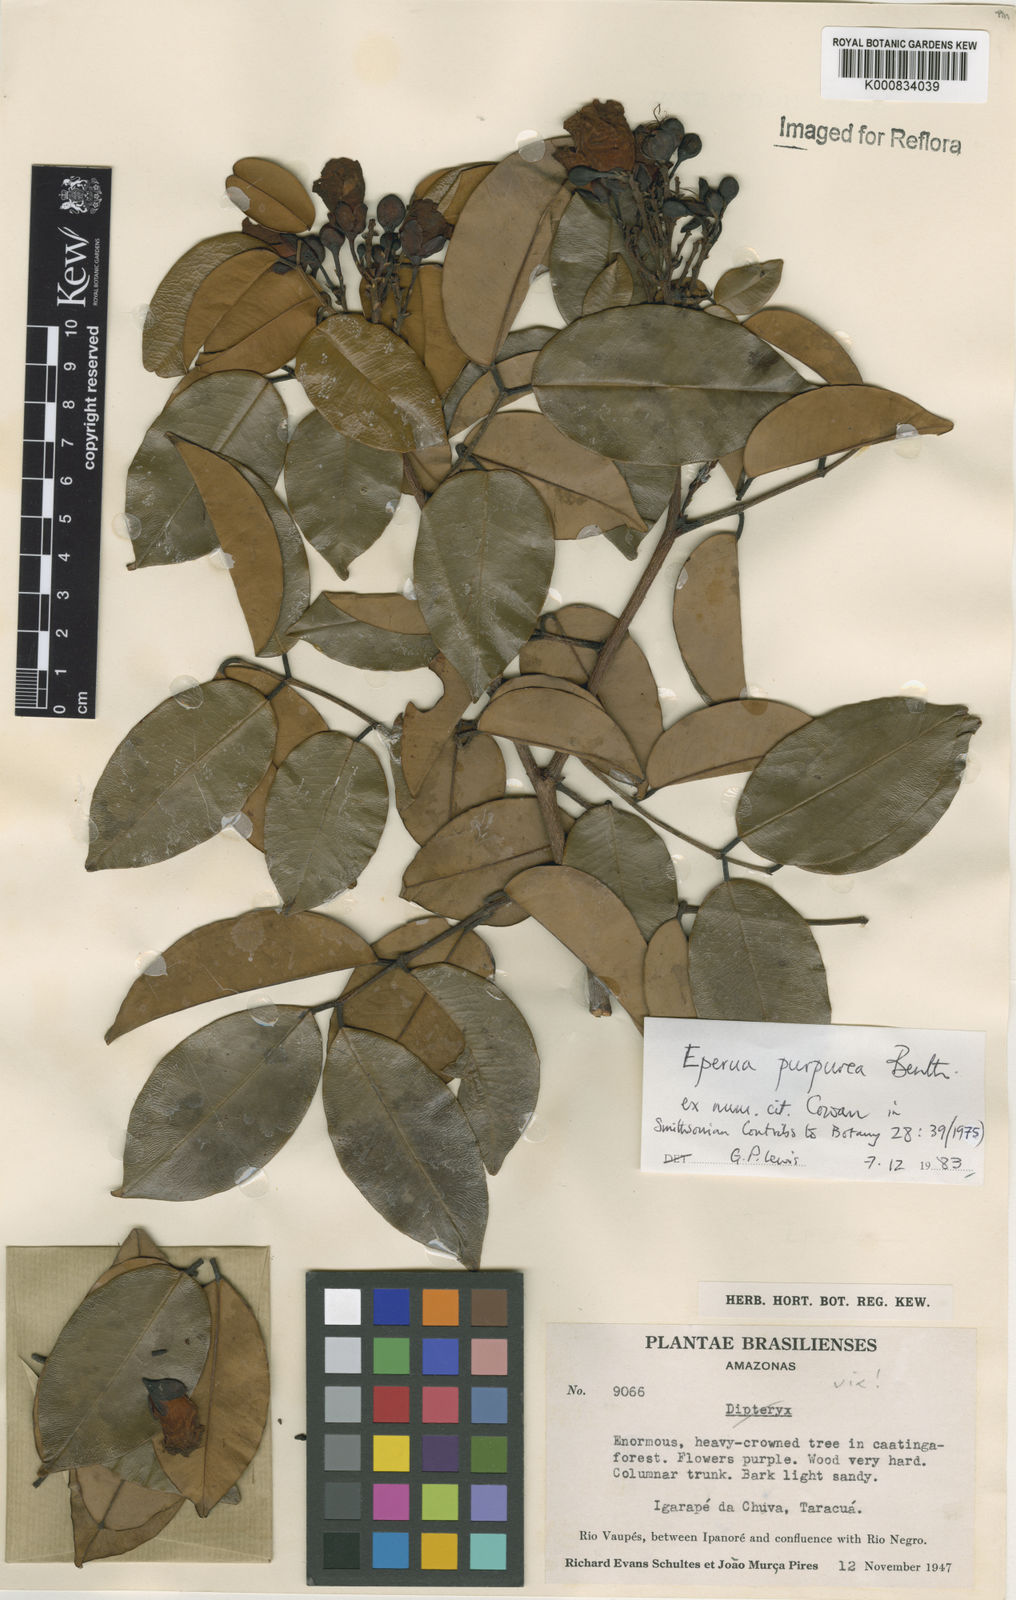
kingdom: Plantae
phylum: Tracheophyta
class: Magnoliopsida
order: Fabales
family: Fabaceae
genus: Eperua
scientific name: Eperua purpurea
